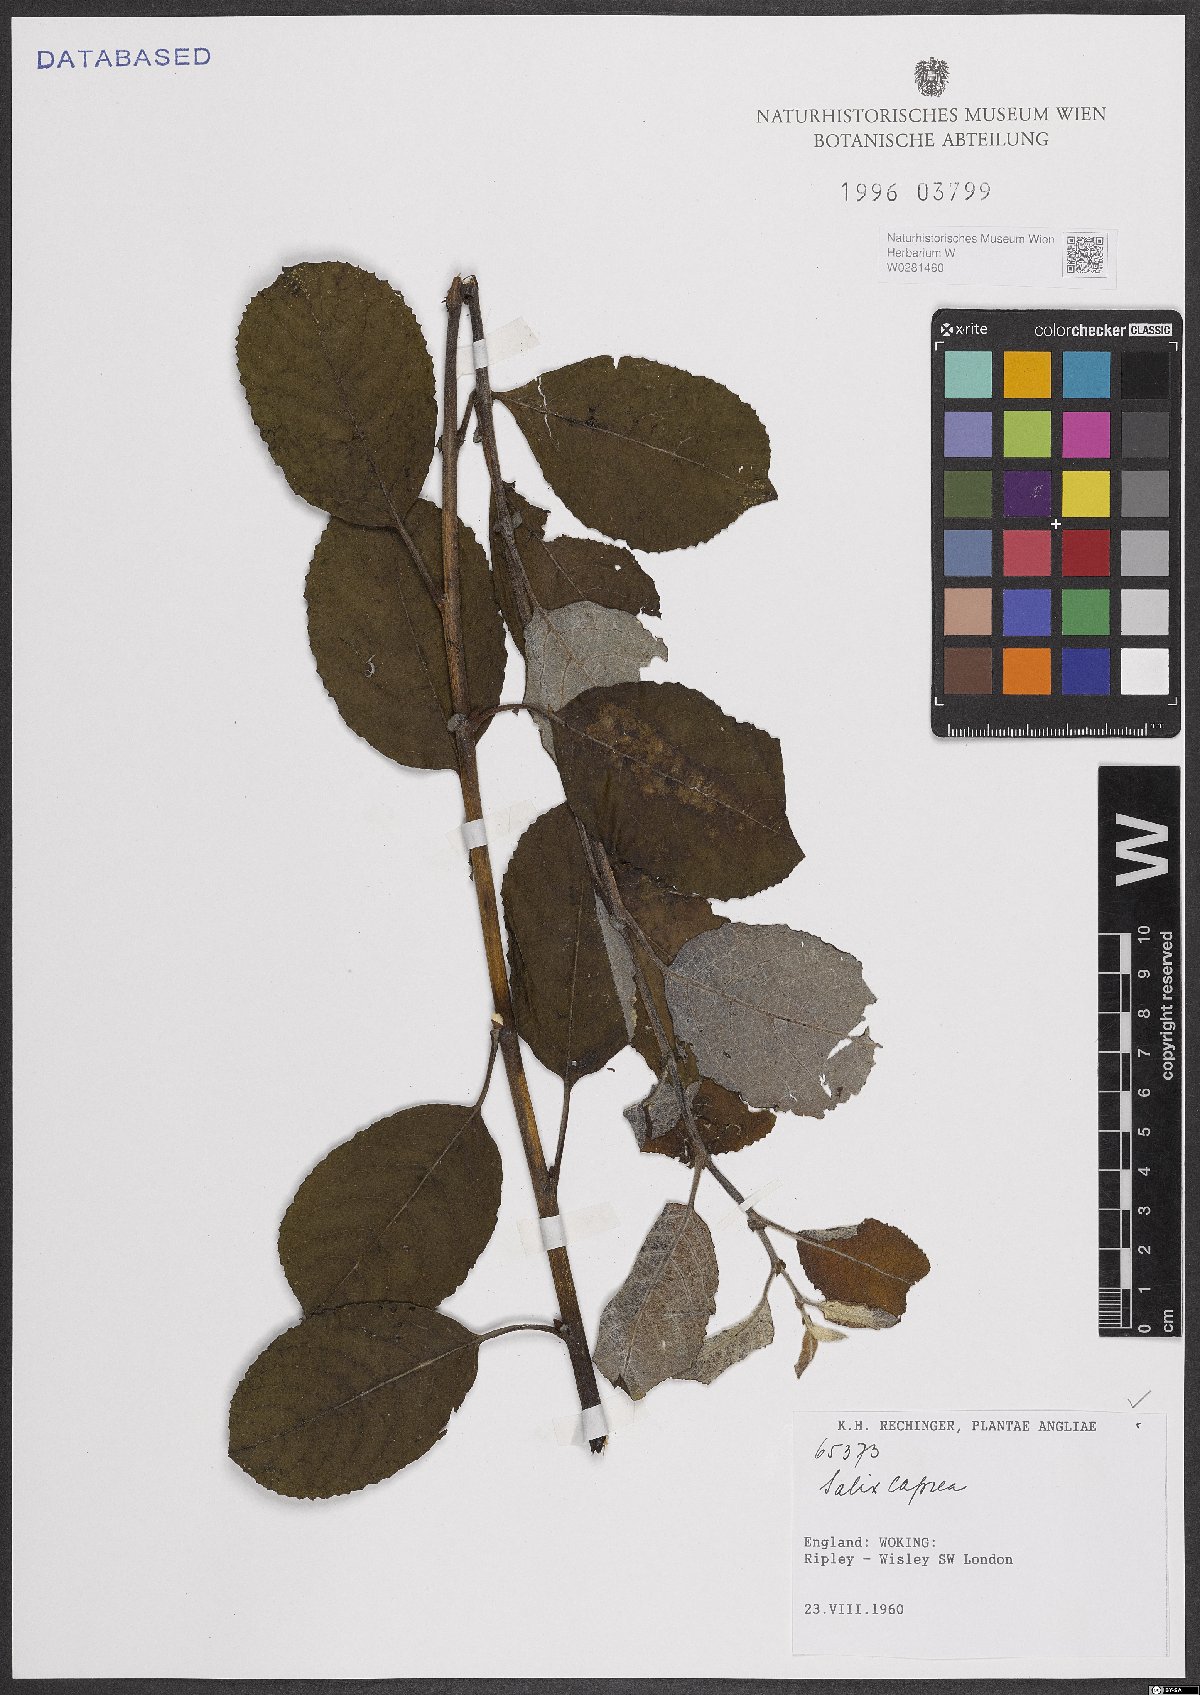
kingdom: Plantae
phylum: Tracheophyta
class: Magnoliopsida
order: Malpighiales
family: Salicaceae
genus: Salix
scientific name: Salix caprea
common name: Goat willow
